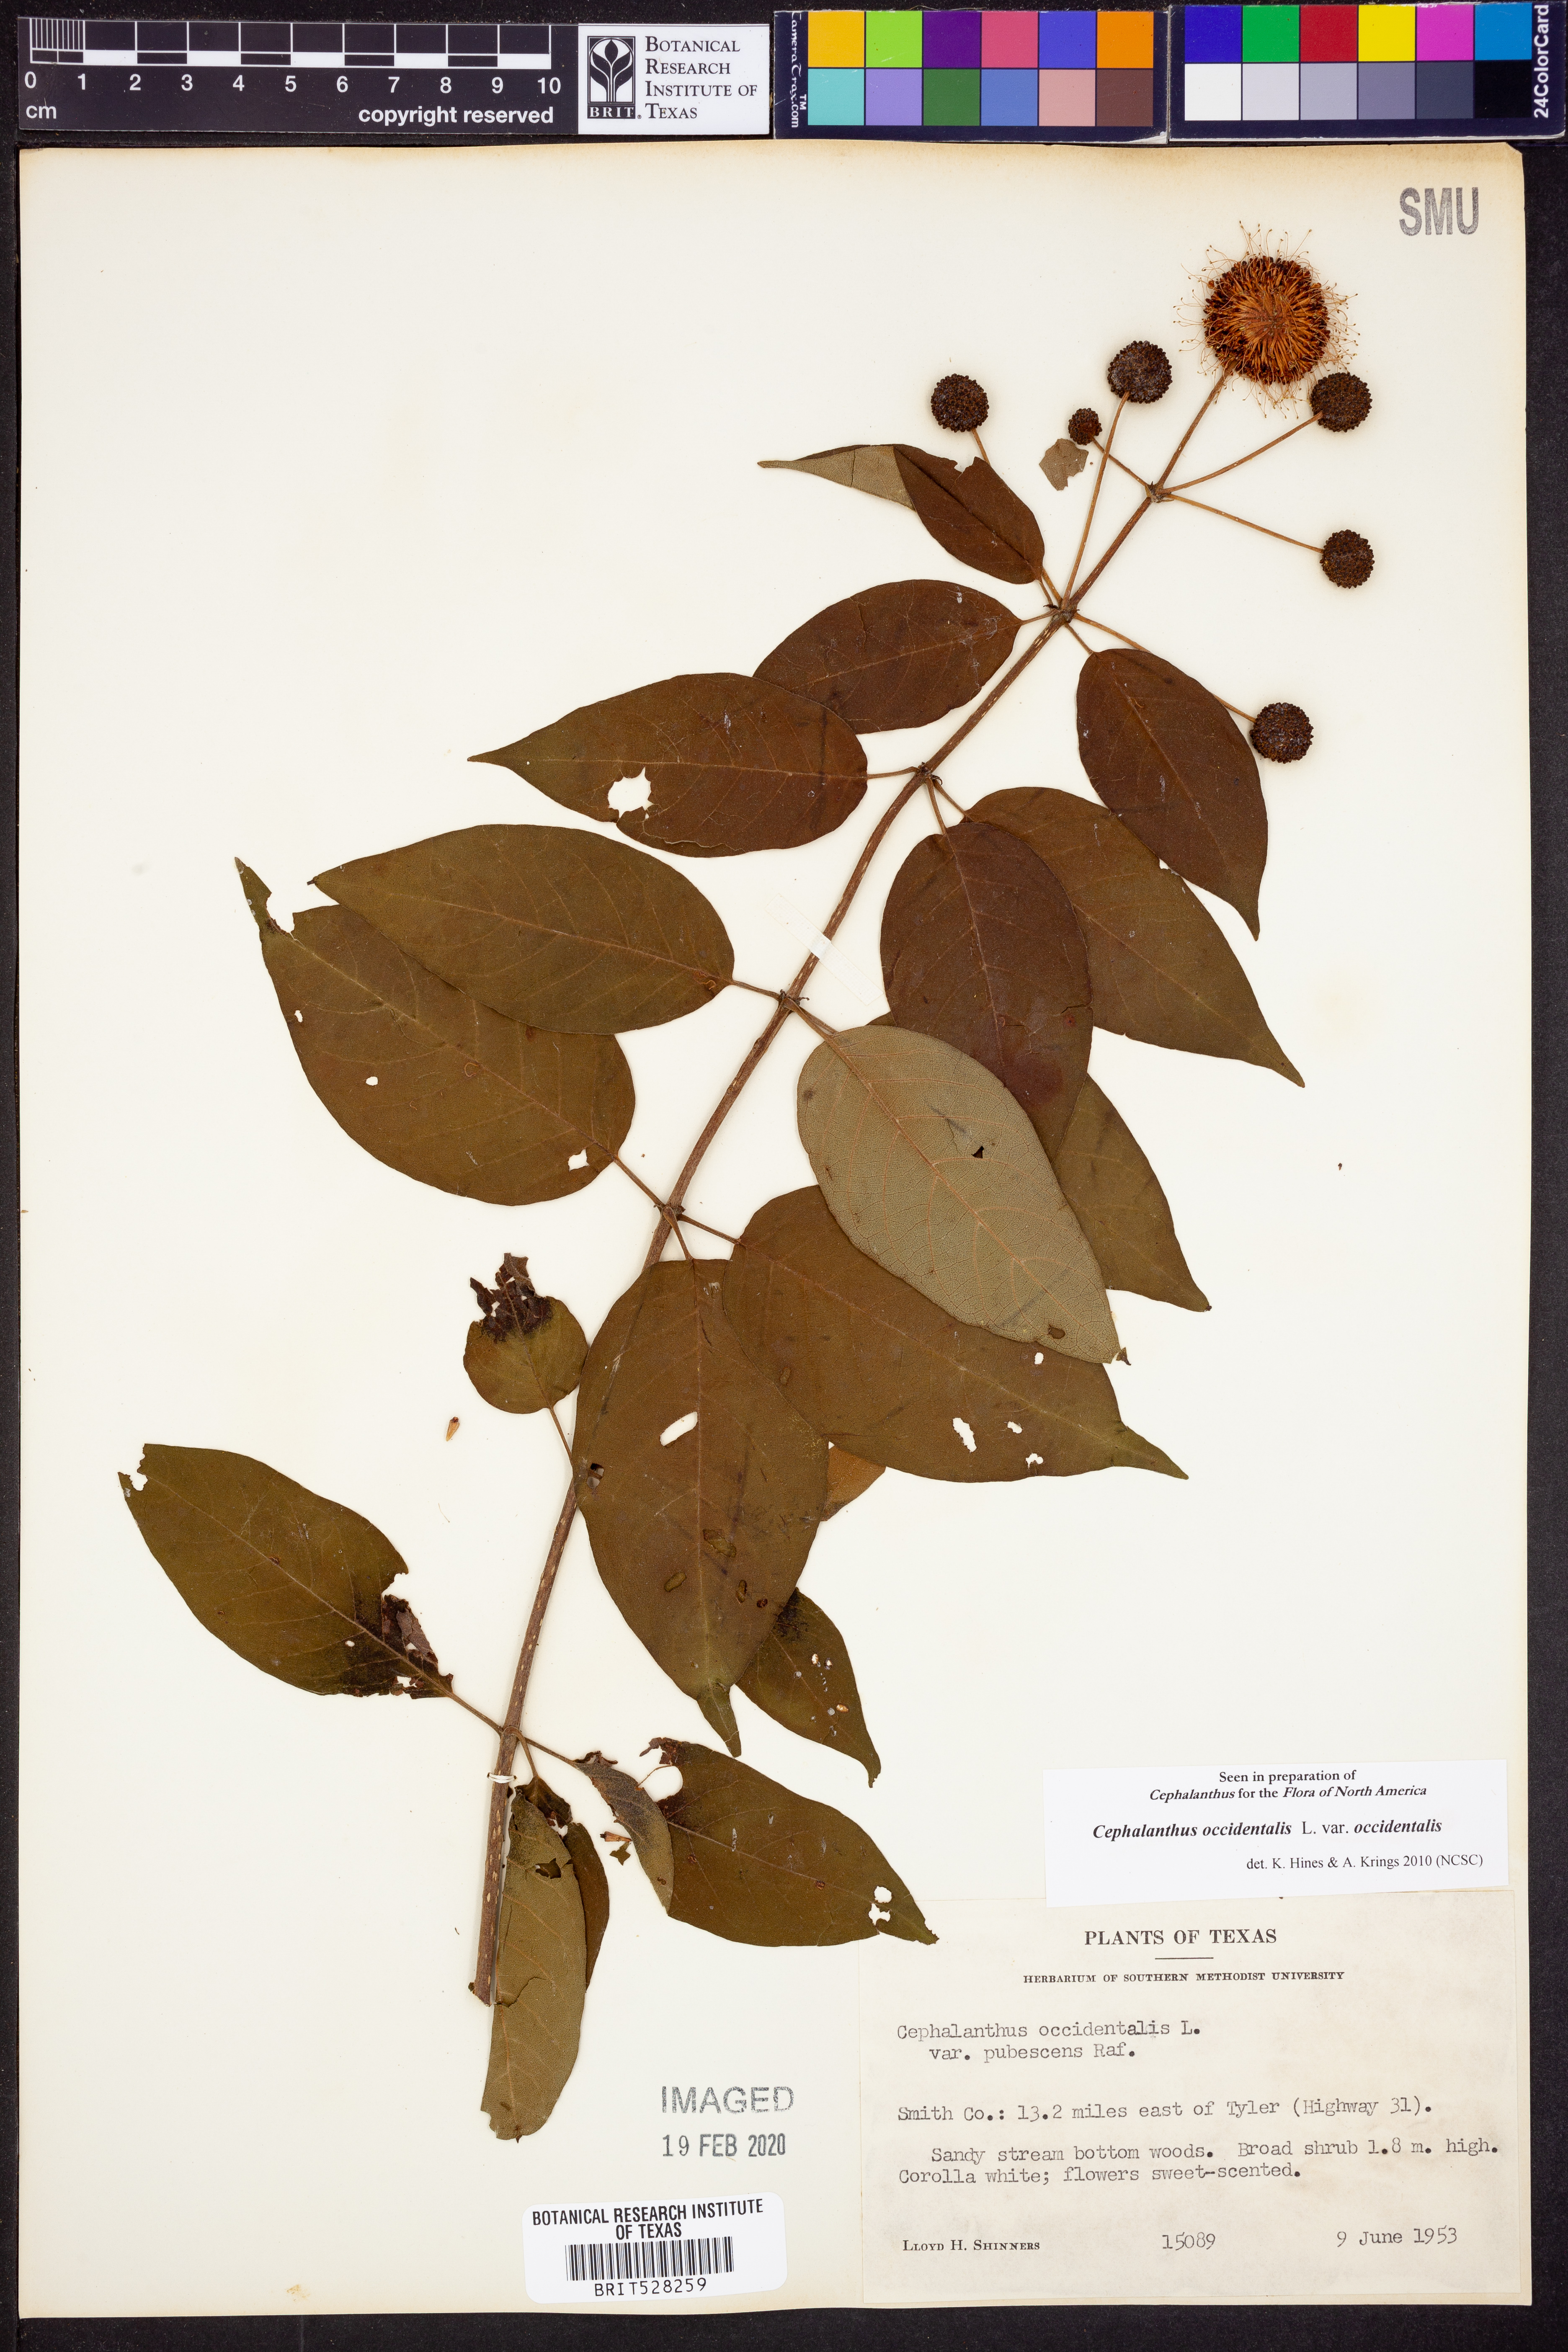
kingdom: Plantae
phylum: Tracheophyta
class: Magnoliopsida
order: Gentianales
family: Rubiaceae
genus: Cephalanthus
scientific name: Cephalanthus occidentalis
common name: Button-willow
